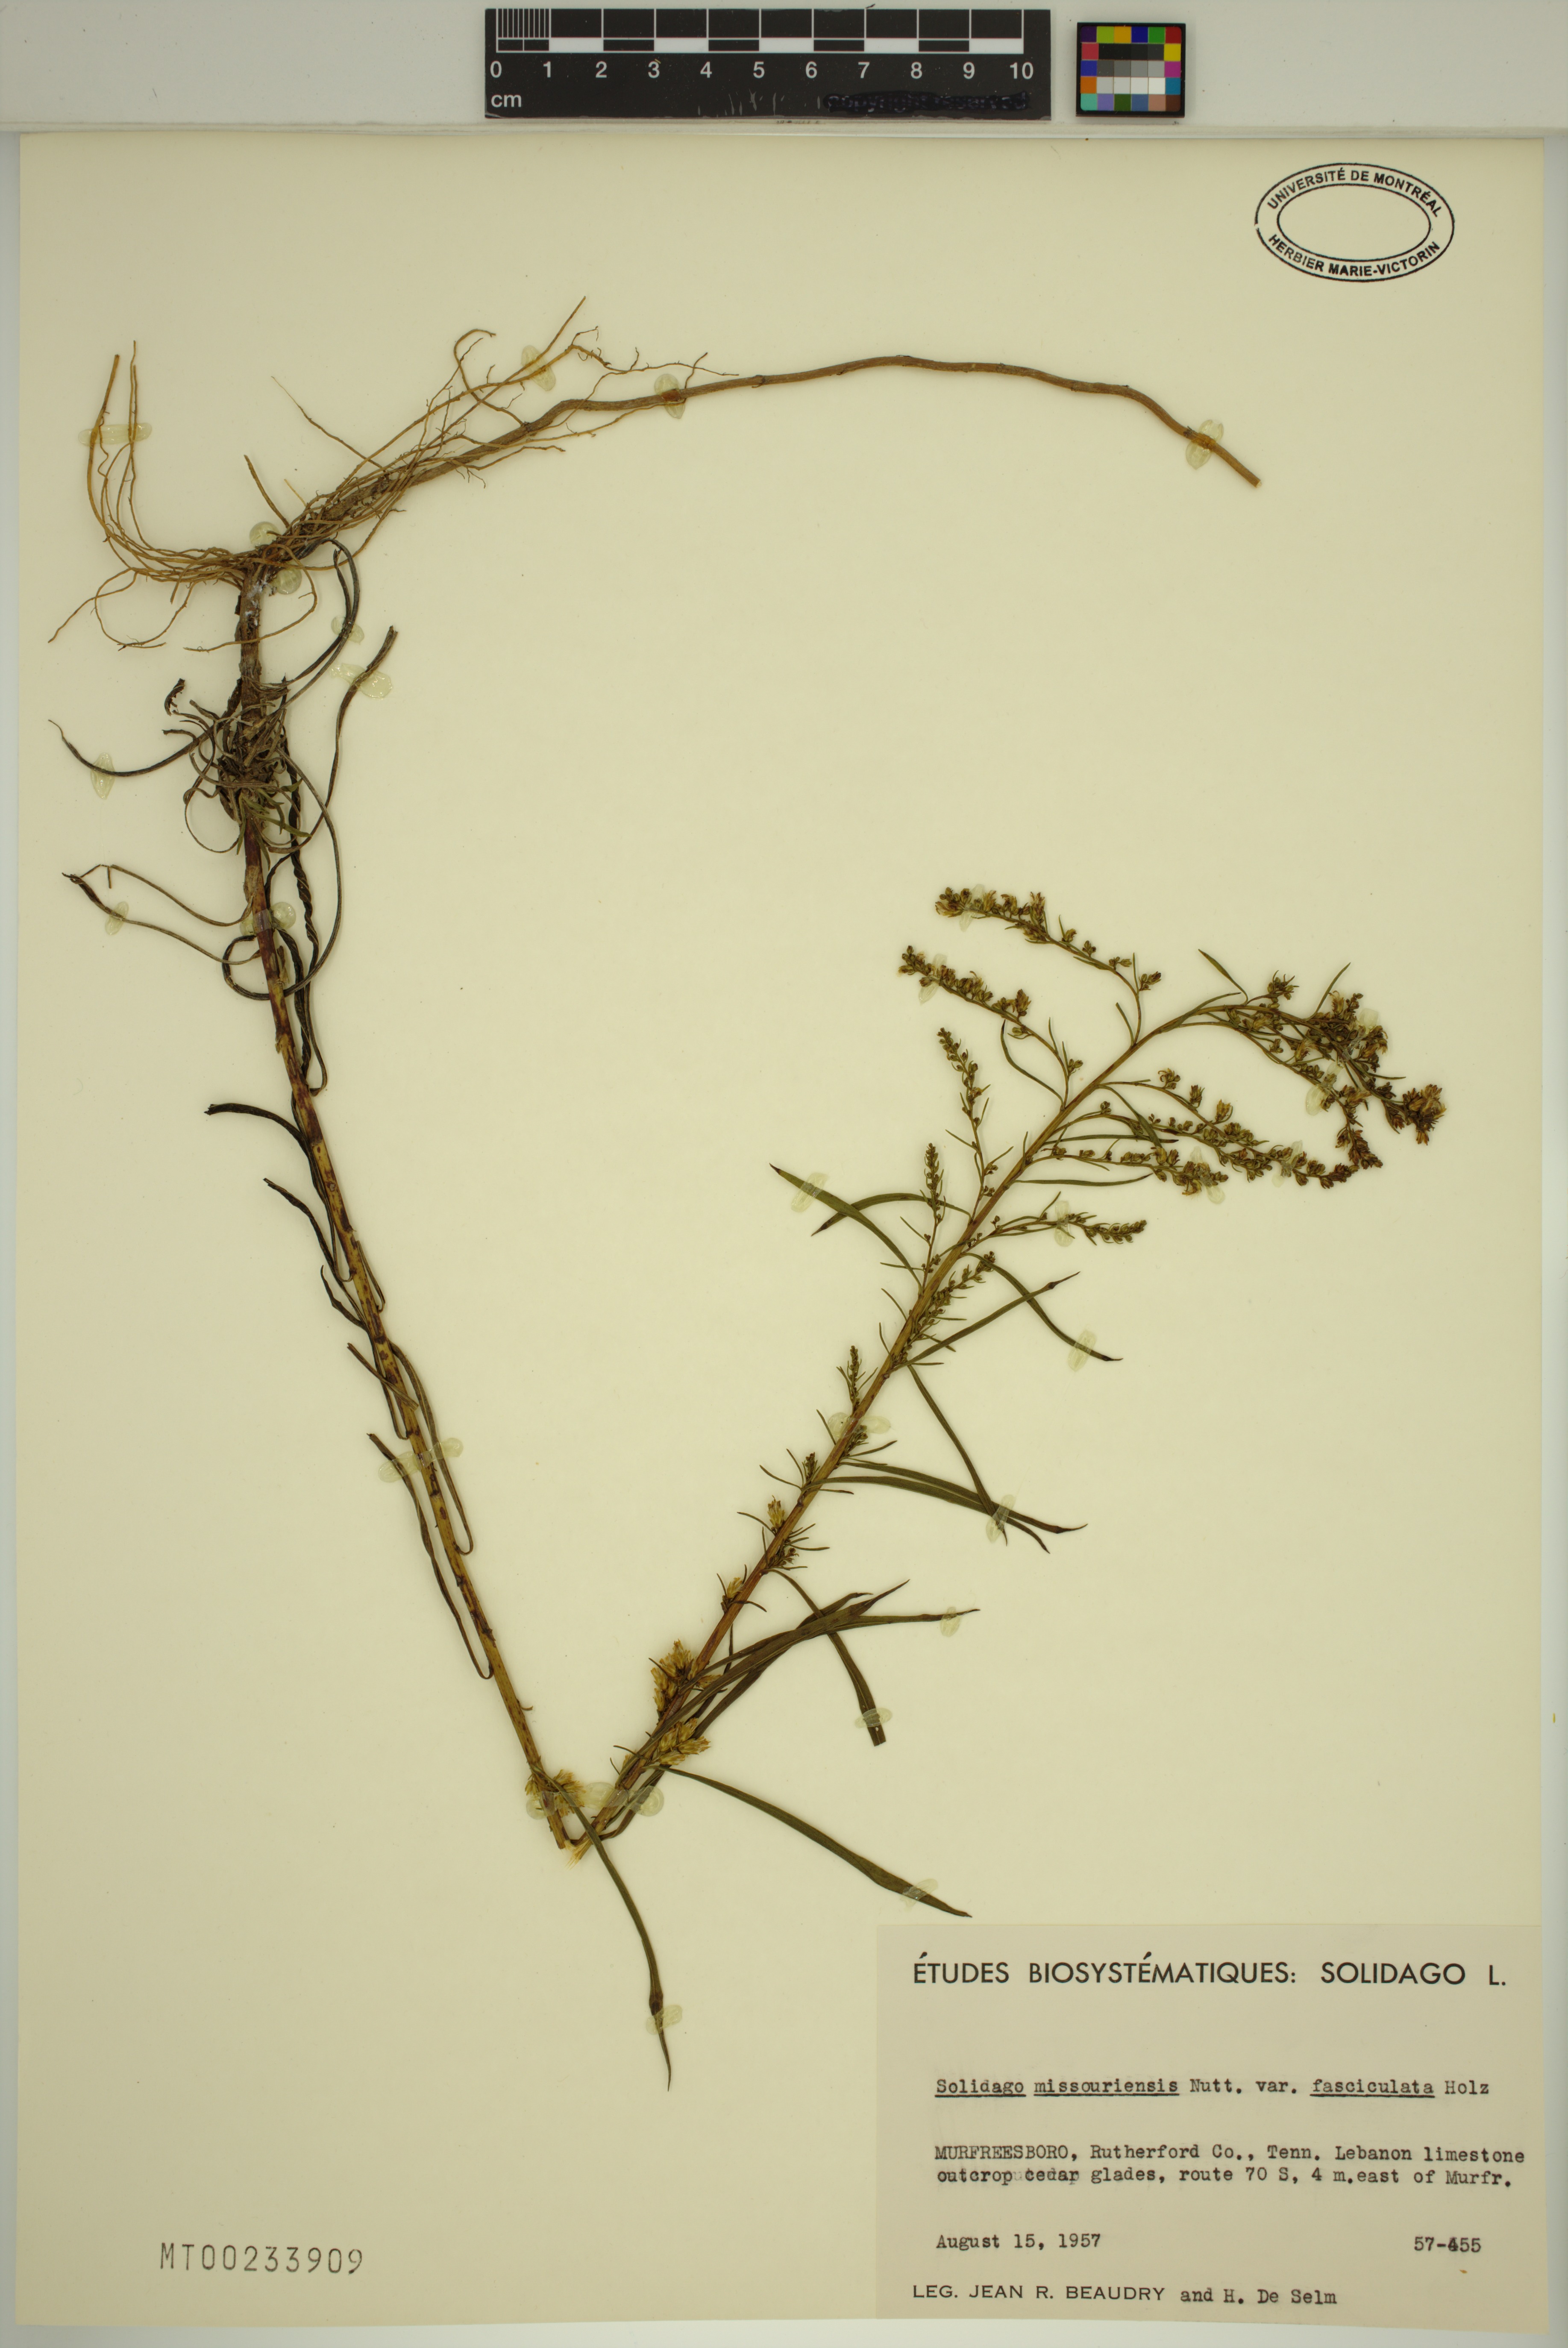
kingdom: Plantae
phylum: Tracheophyta
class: Magnoliopsida
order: Asterales
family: Asteraceae
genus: Solidago
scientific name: Solidago missouriensis
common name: Prairie goldenrod
